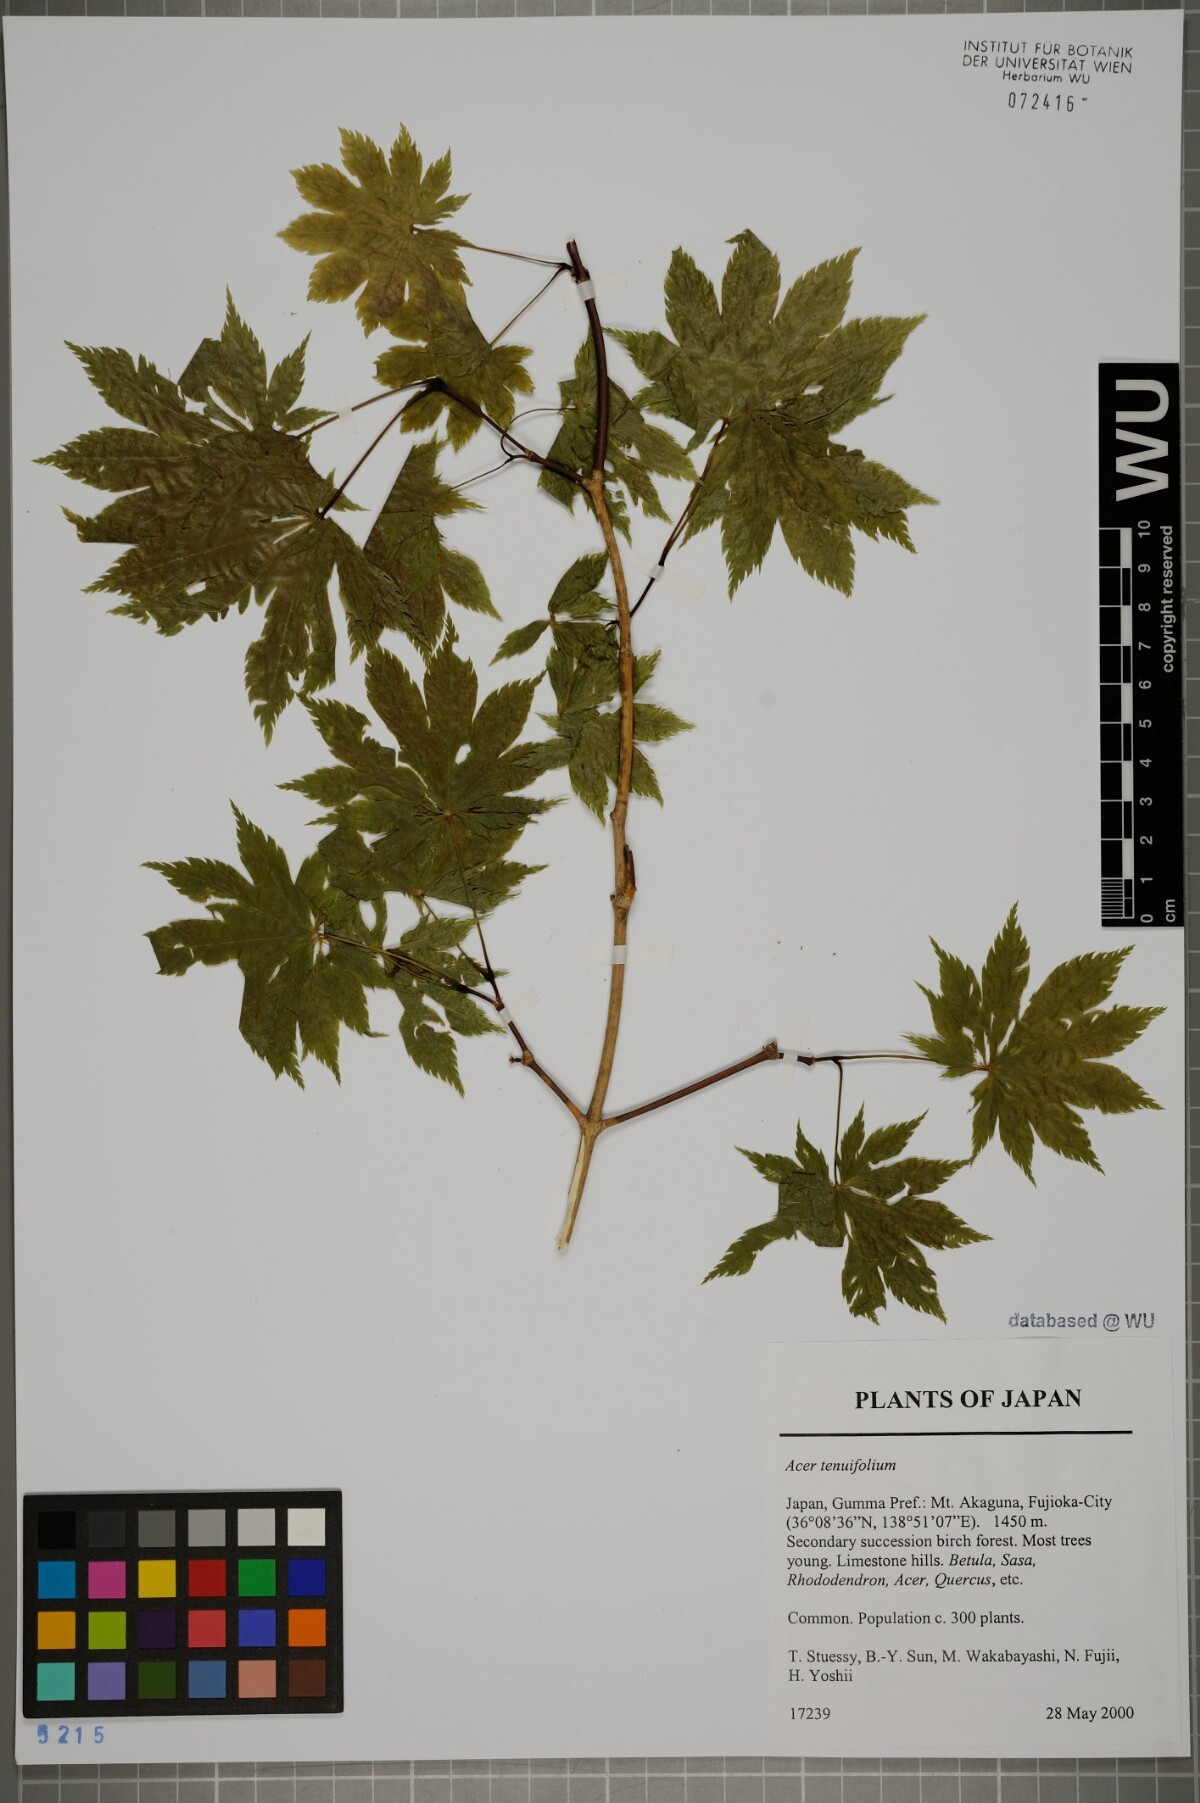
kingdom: Plantae
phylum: Tracheophyta
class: Magnoliopsida
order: Sapindales
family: Sapindaceae
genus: Acer
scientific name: Acer shirasawanum
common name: Full moon maple
